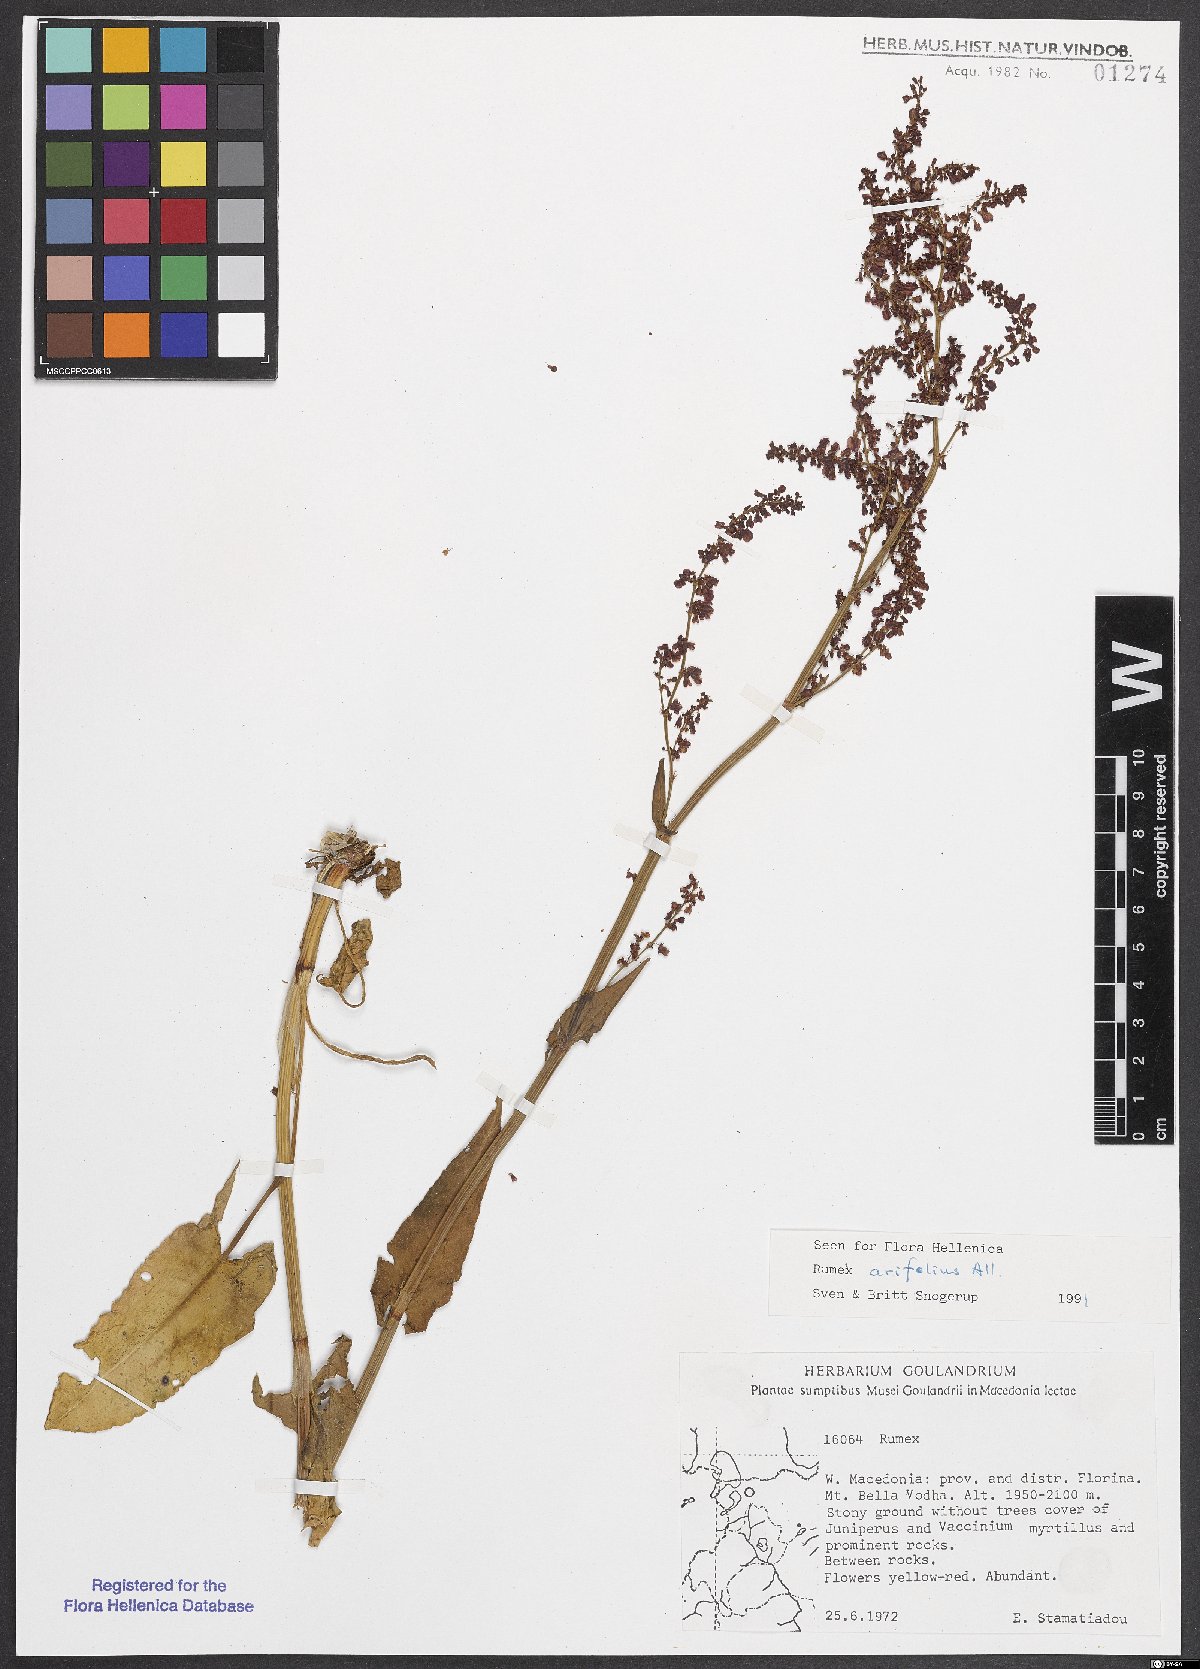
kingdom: Plantae
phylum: Tracheophyta
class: Magnoliopsida
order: Caryophyllales
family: Polygonaceae
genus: Rumex
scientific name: Rumex arifolius
